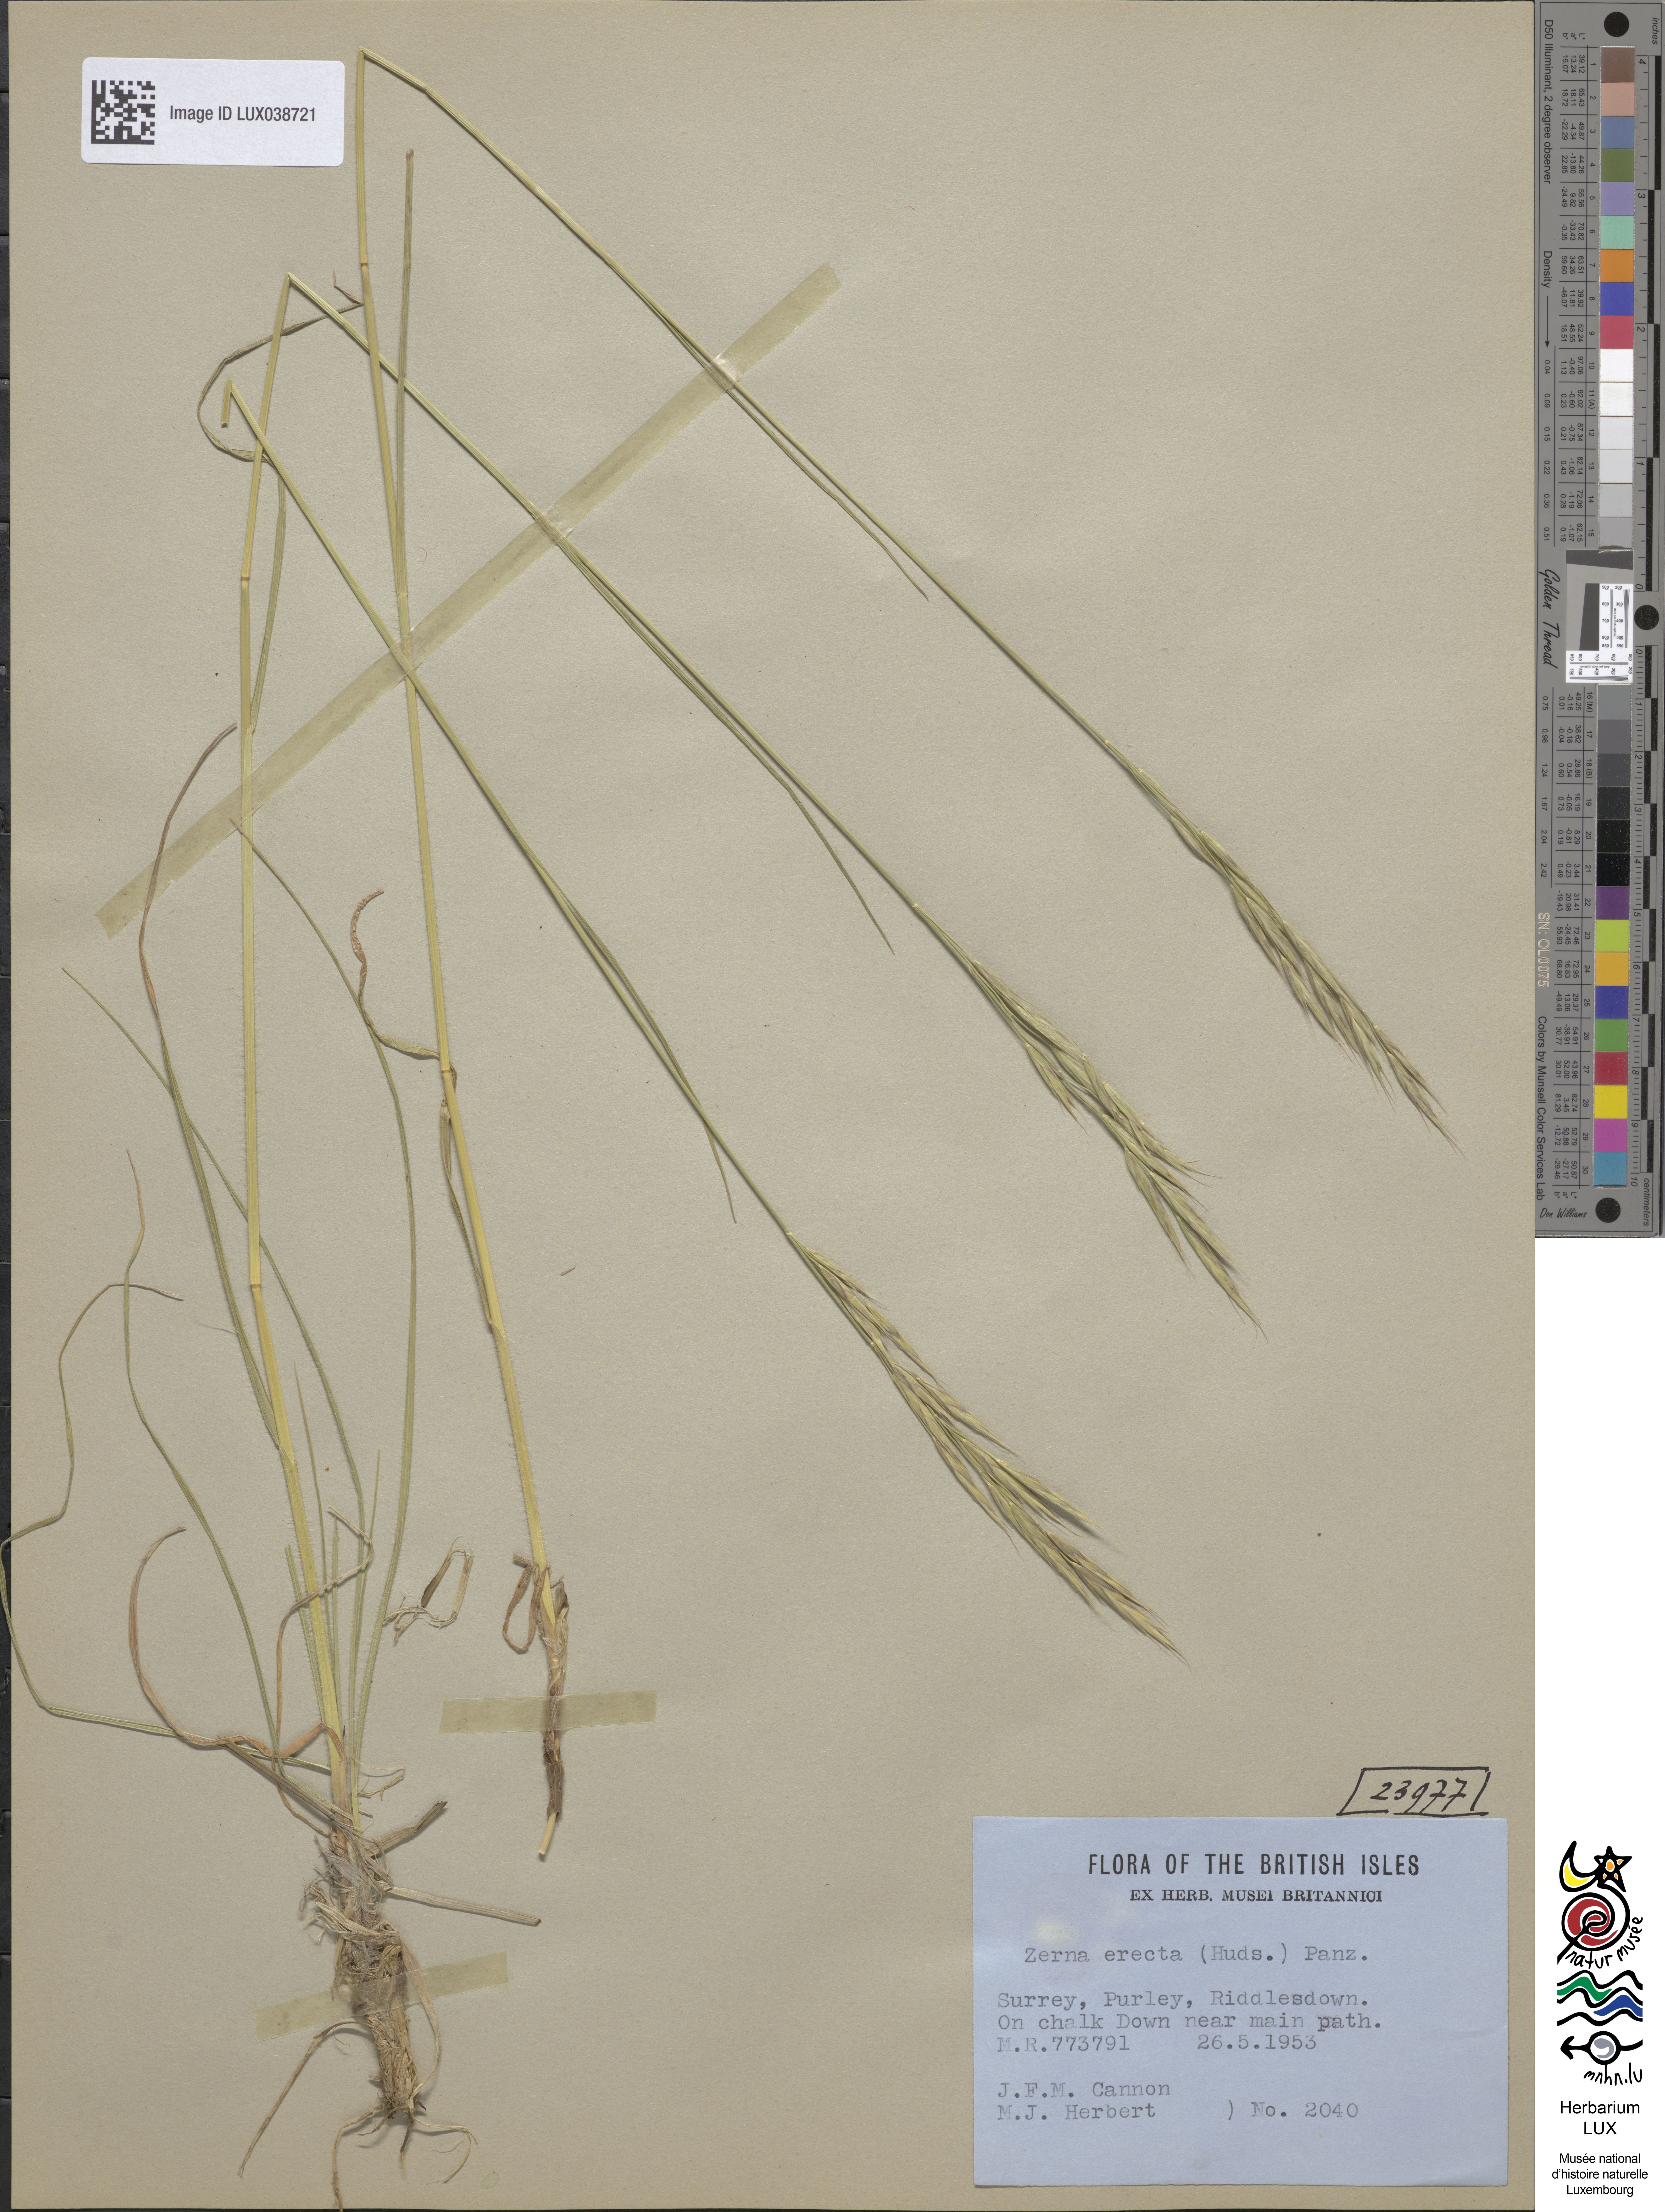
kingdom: Plantae
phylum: Tracheophyta
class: Liliopsida
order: Poales
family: Poaceae
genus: Bromus
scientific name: Bromus erectus
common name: Erect brome
